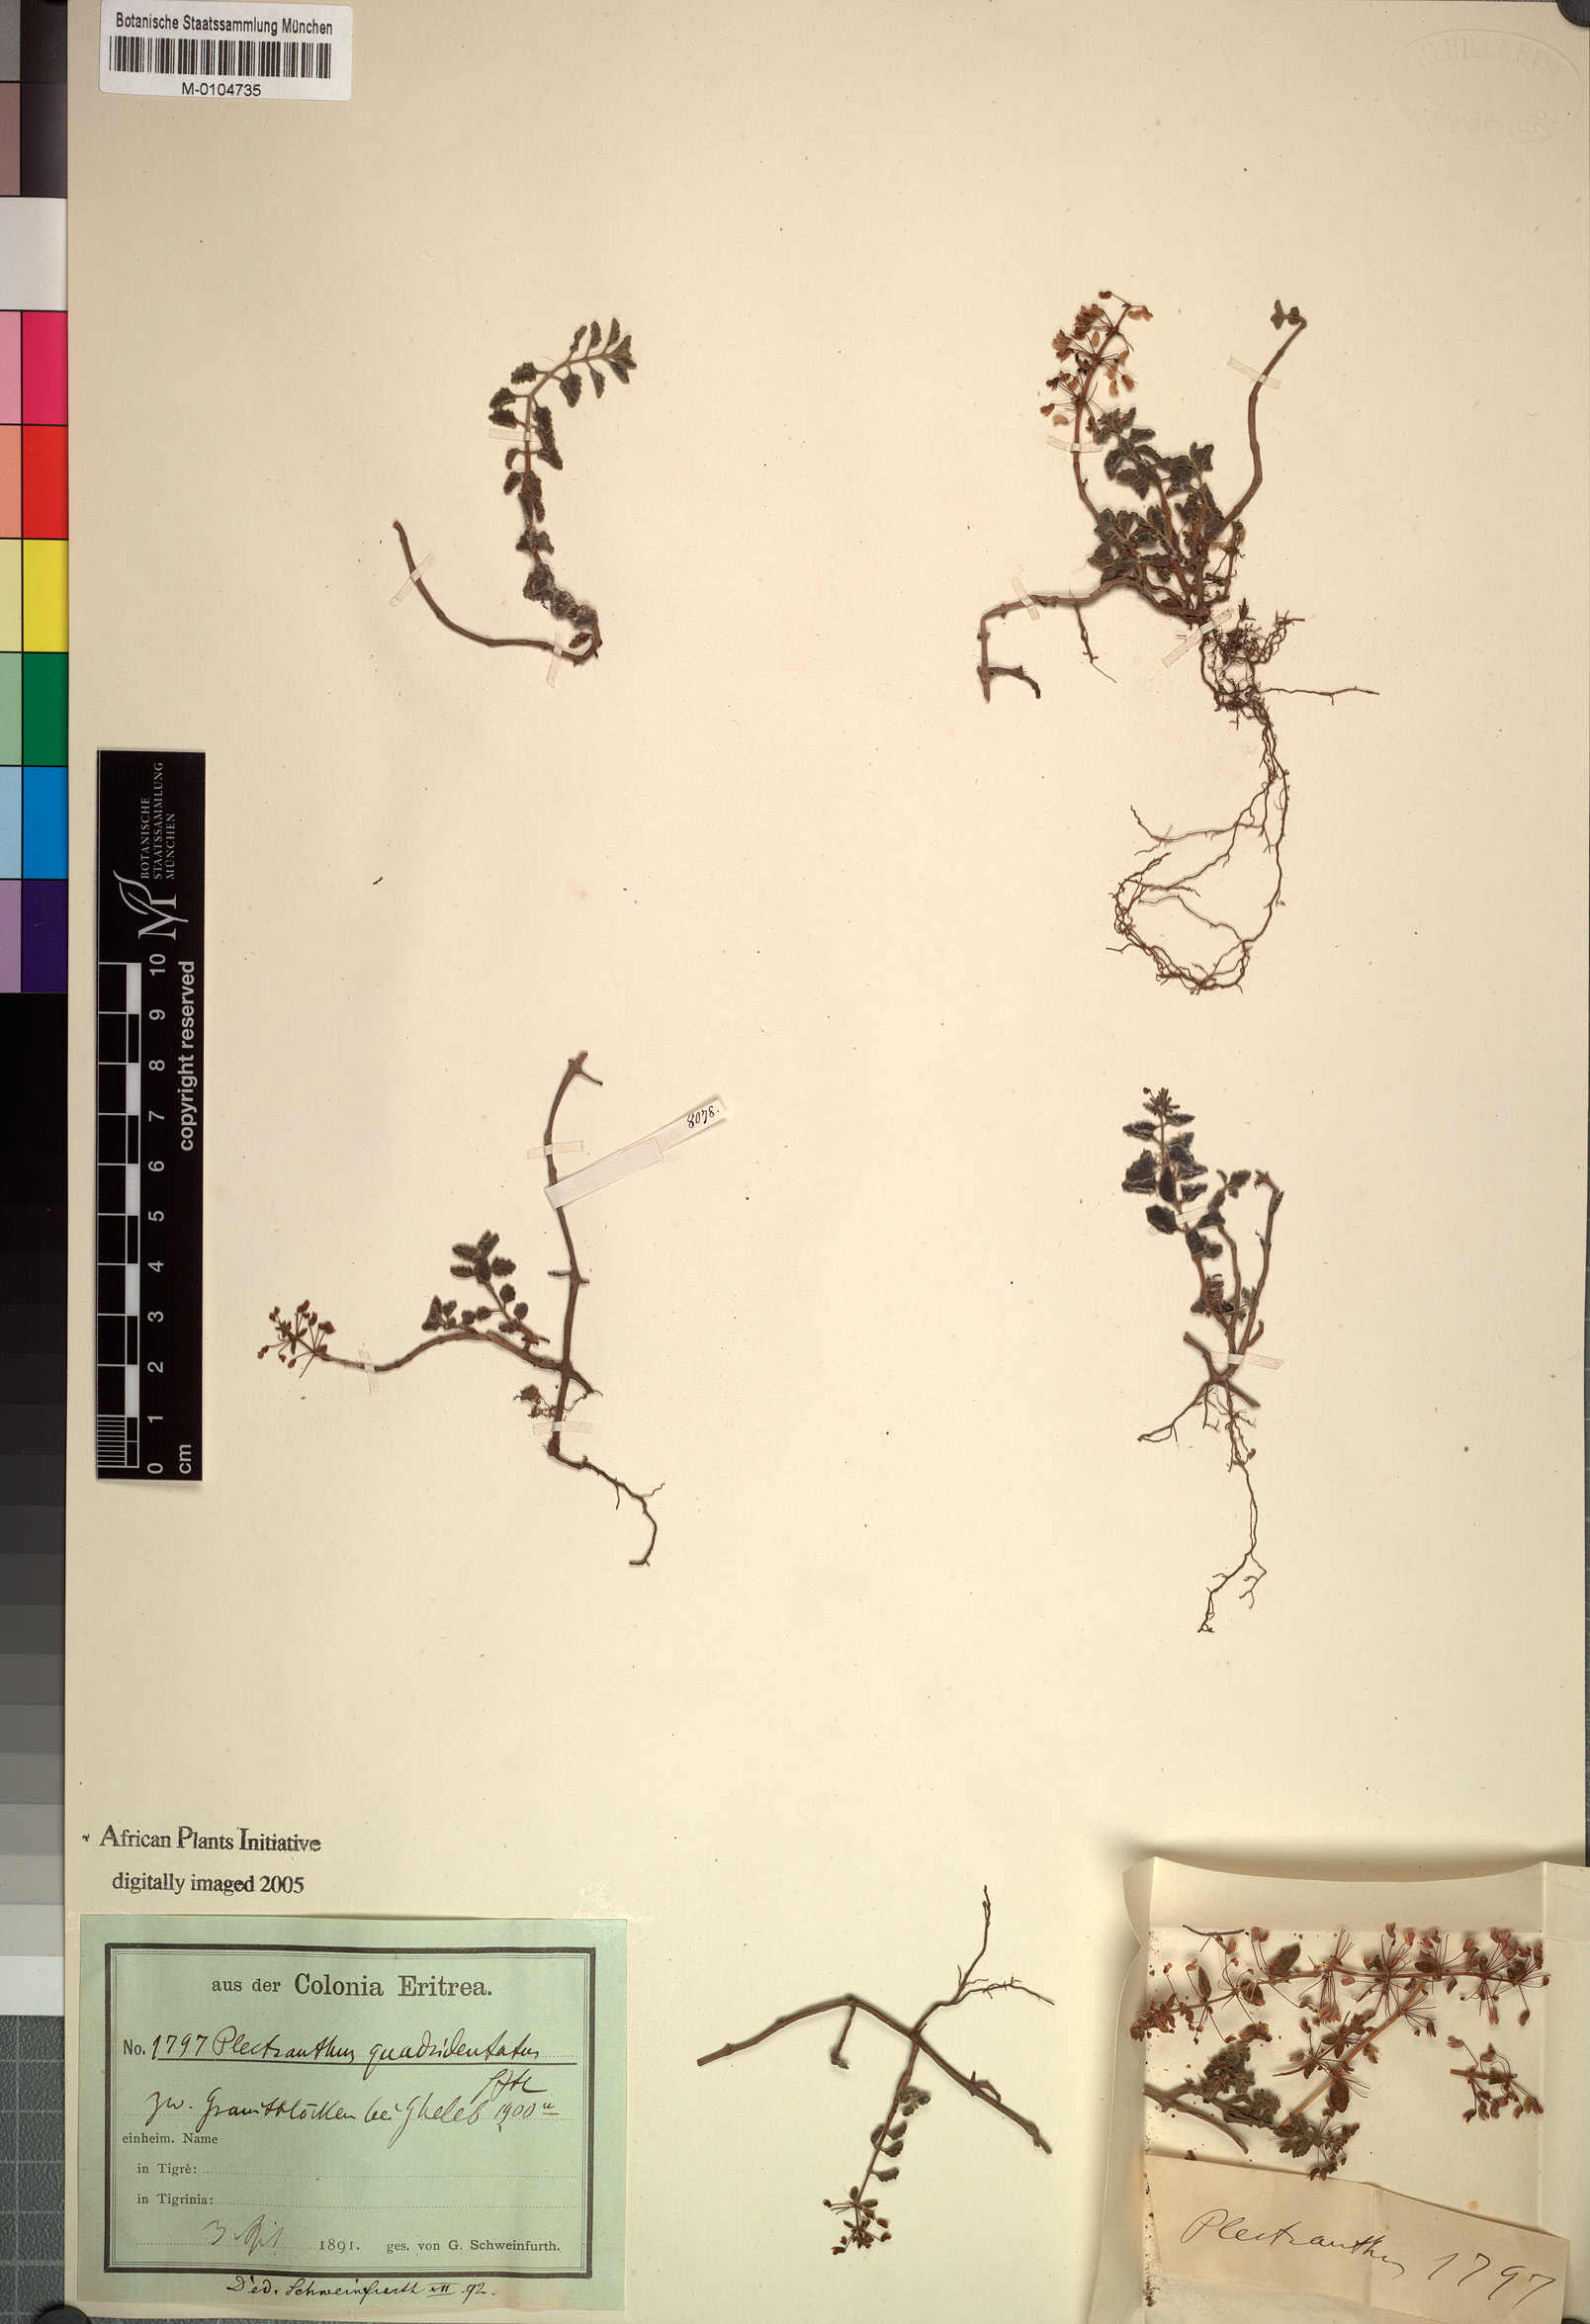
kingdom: Plantae
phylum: Tracheophyta
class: Magnoliopsida
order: Lamiales
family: Lamiaceae
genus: Coleus
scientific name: Coleus prostratus
